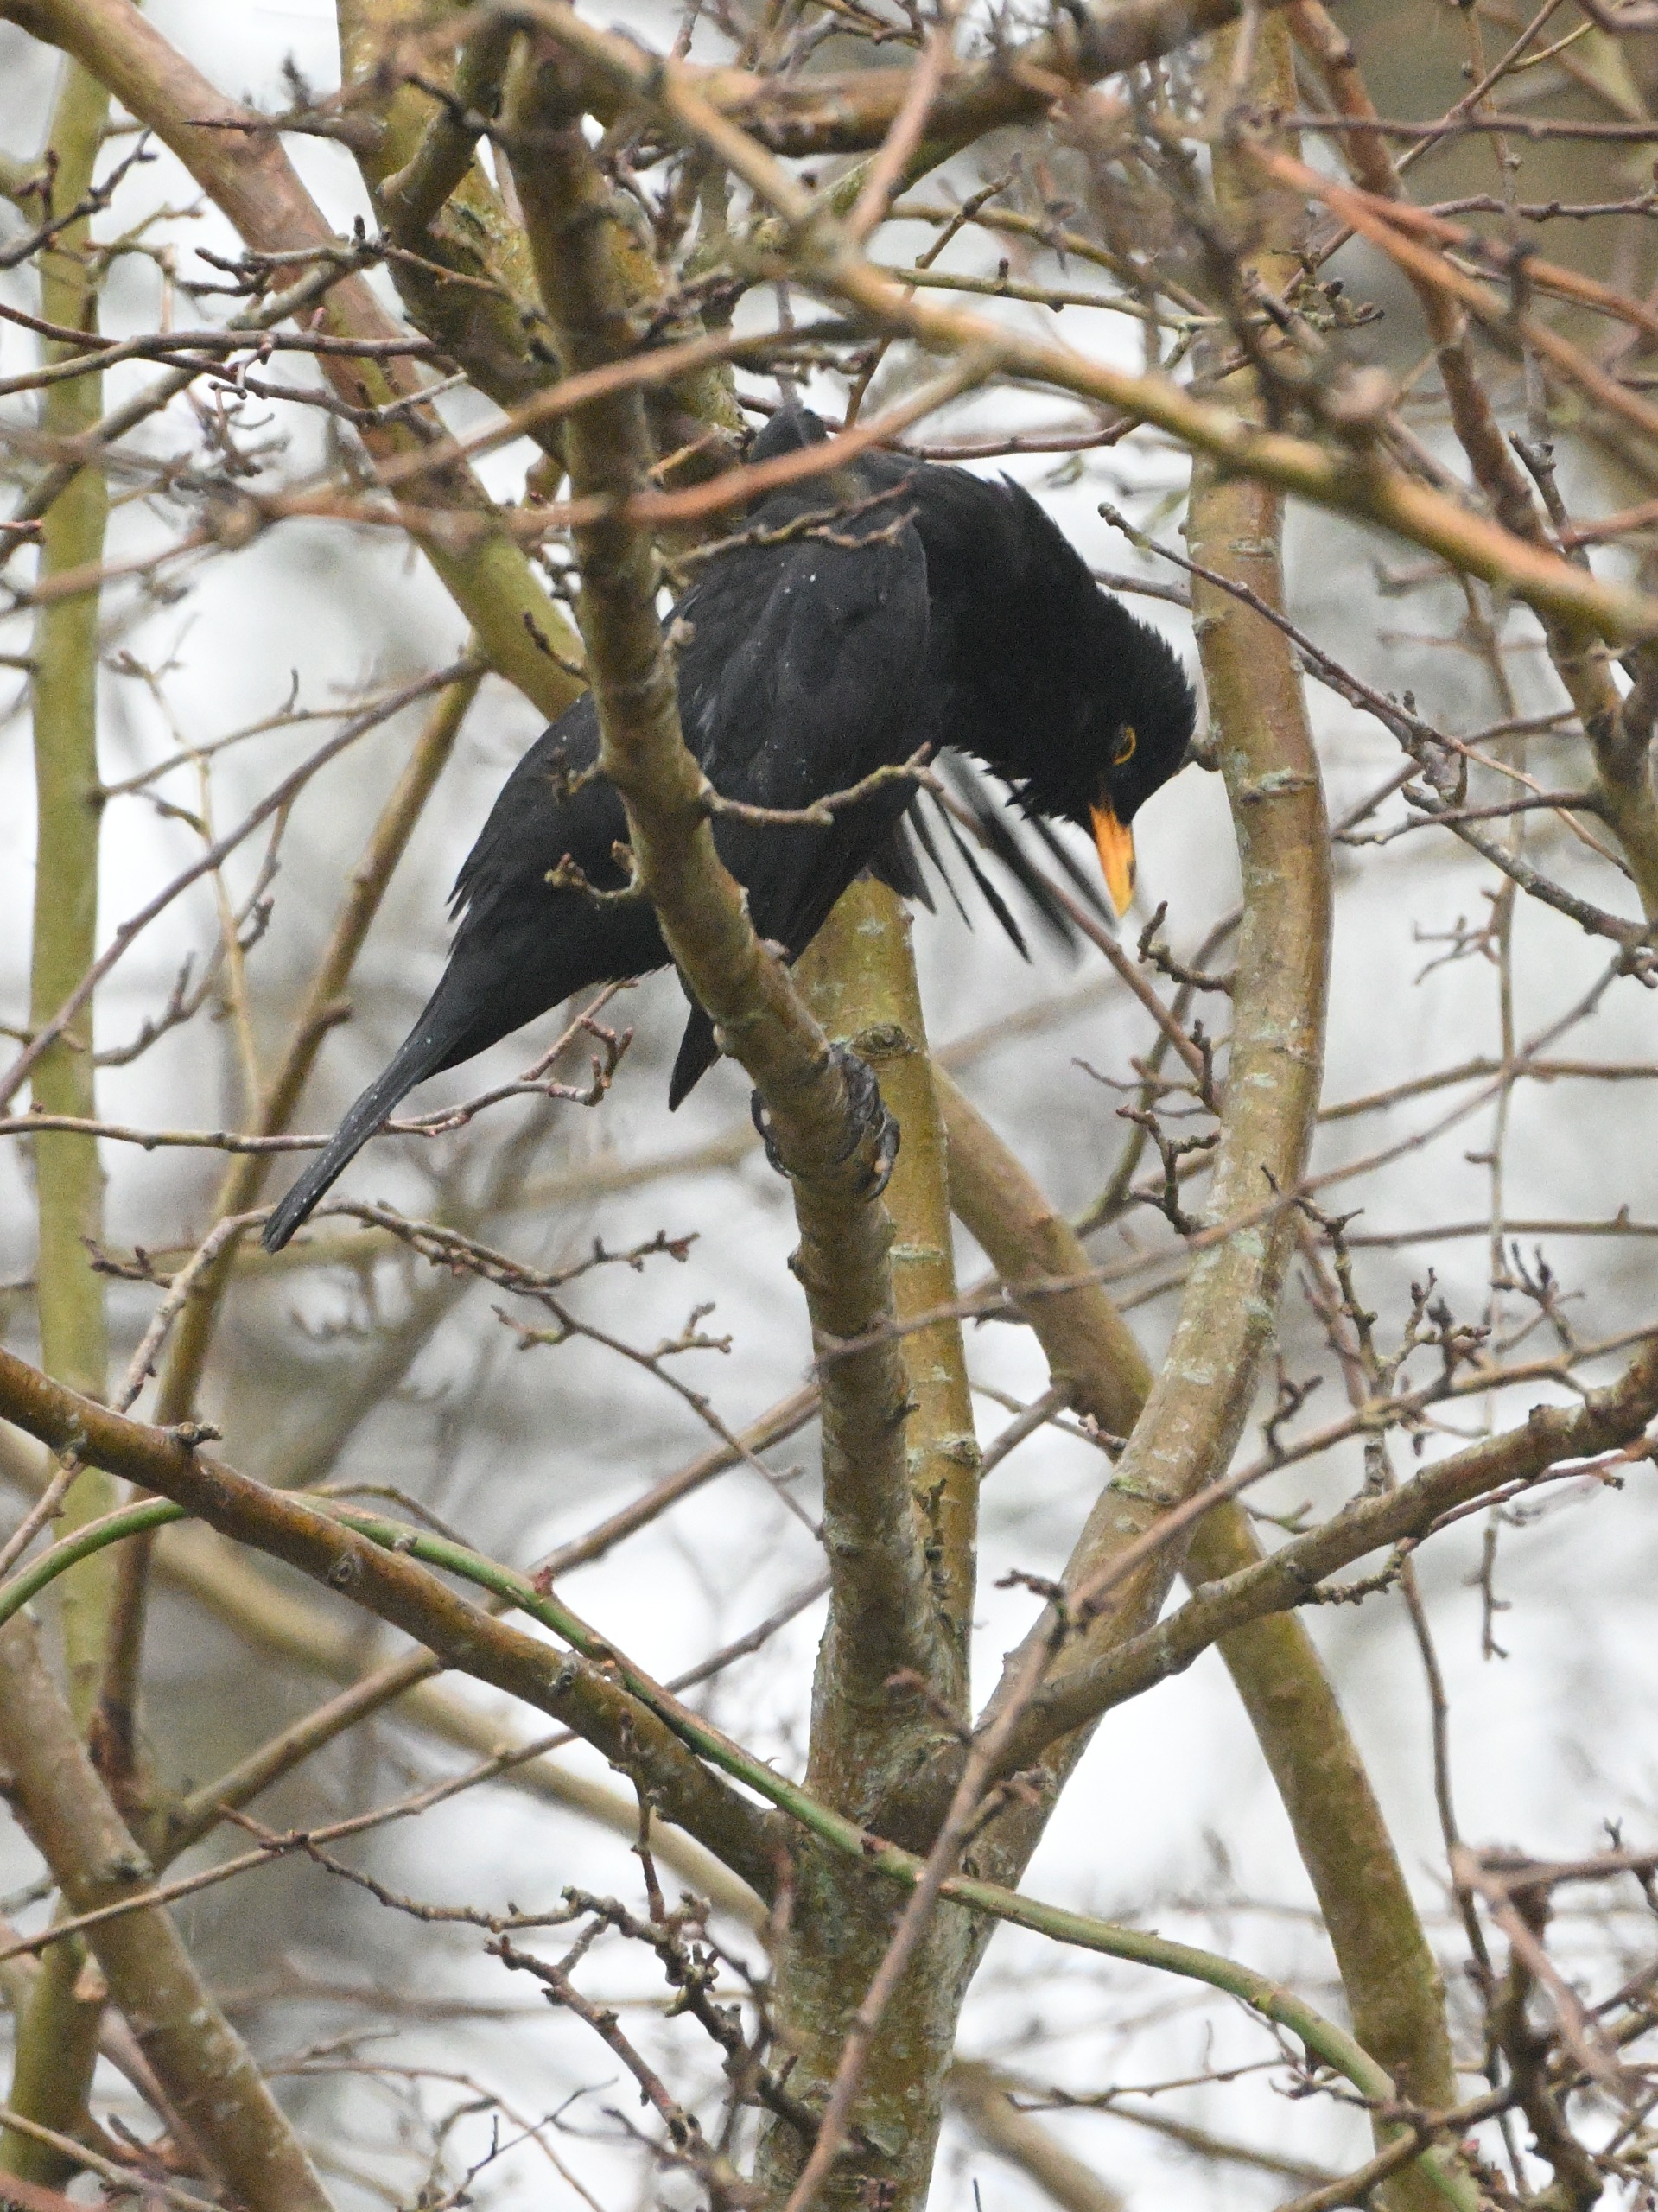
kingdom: Animalia
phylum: Chordata
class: Aves
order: Passeriformes
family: Turdidae
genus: Turdus
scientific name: Turdus merula
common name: Solsort
